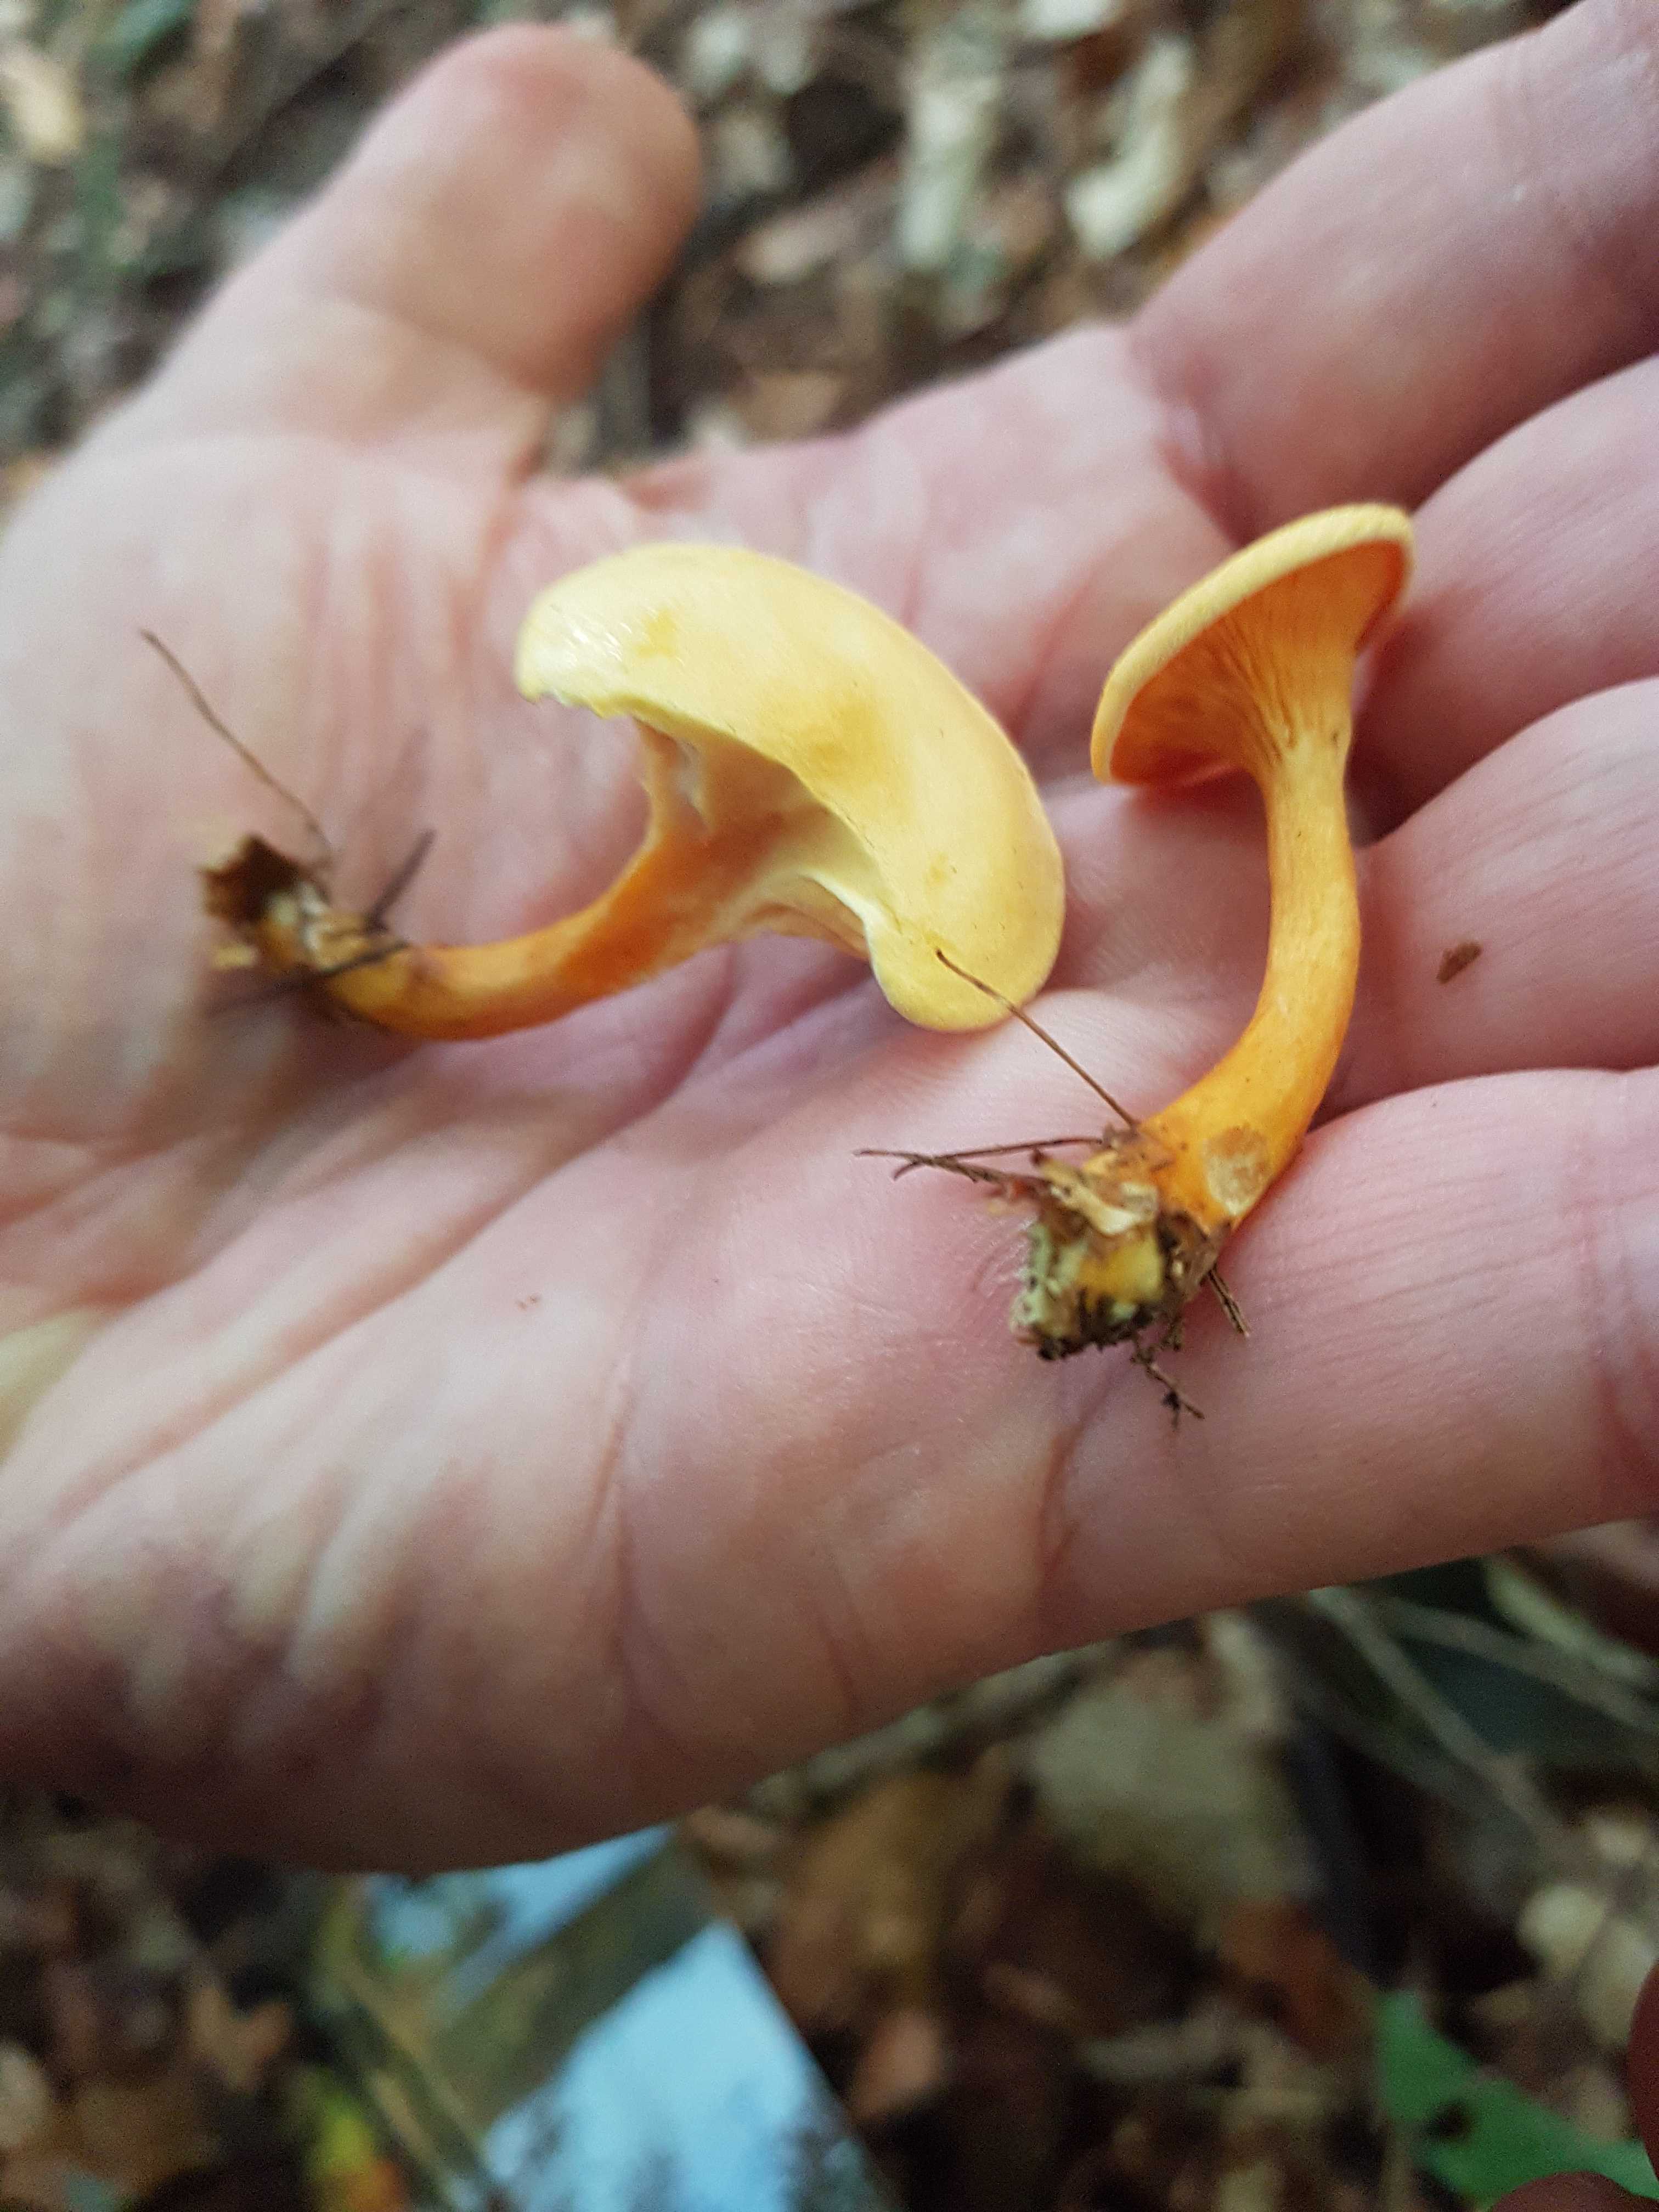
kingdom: Fungi
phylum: Basidiomycota
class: Agaricomycetes
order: Boletales
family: Hygrophoropsidaceae
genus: Hygrophoropsis
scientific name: Hygrophoropsis aurantiaca
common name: almindelig orangekantarel
